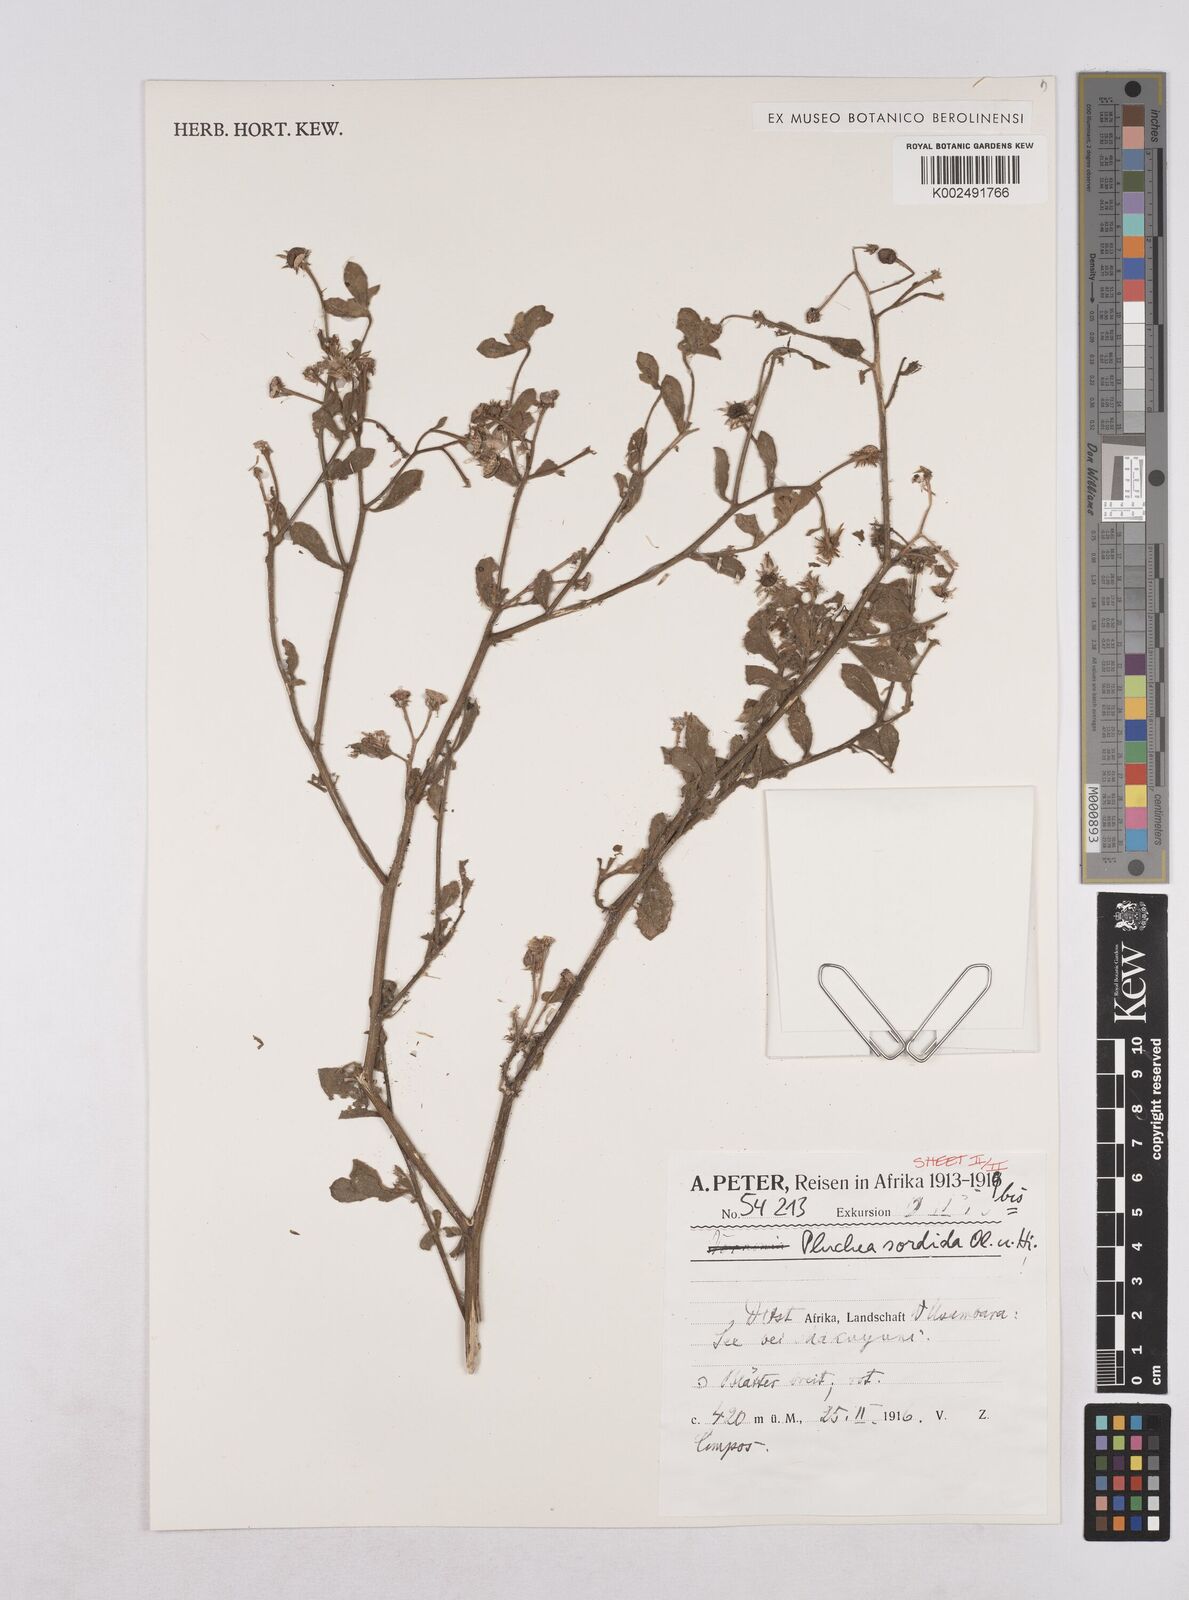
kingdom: Plantae
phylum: Tracheophyta
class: Magnoliopsida
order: Asterales
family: Asteraceae
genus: Pluchea
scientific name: Pluchea sordida
